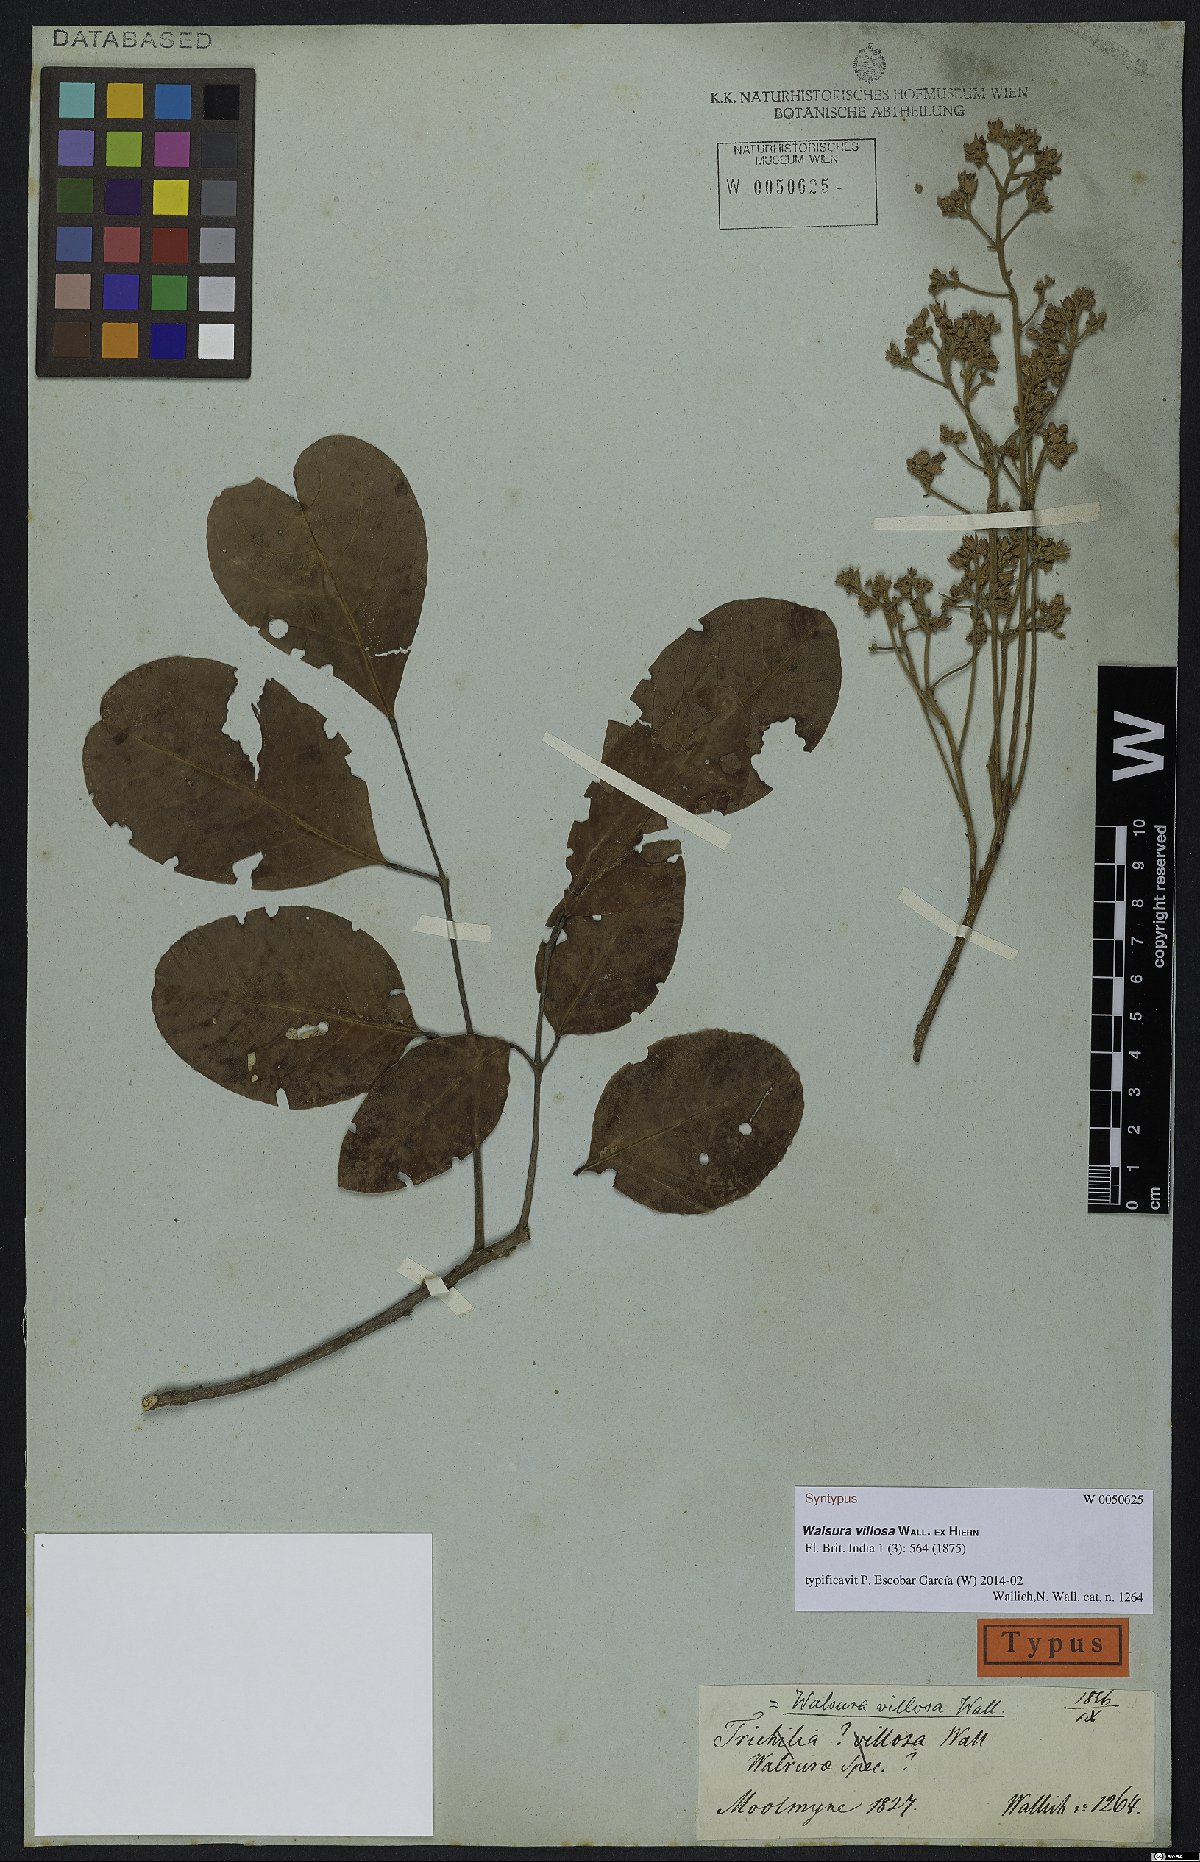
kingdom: Plantae
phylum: Tracheophyta
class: Magnoliopsida
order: Sapindales
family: Meliaceae
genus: Walsura
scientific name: Walsura villosa
